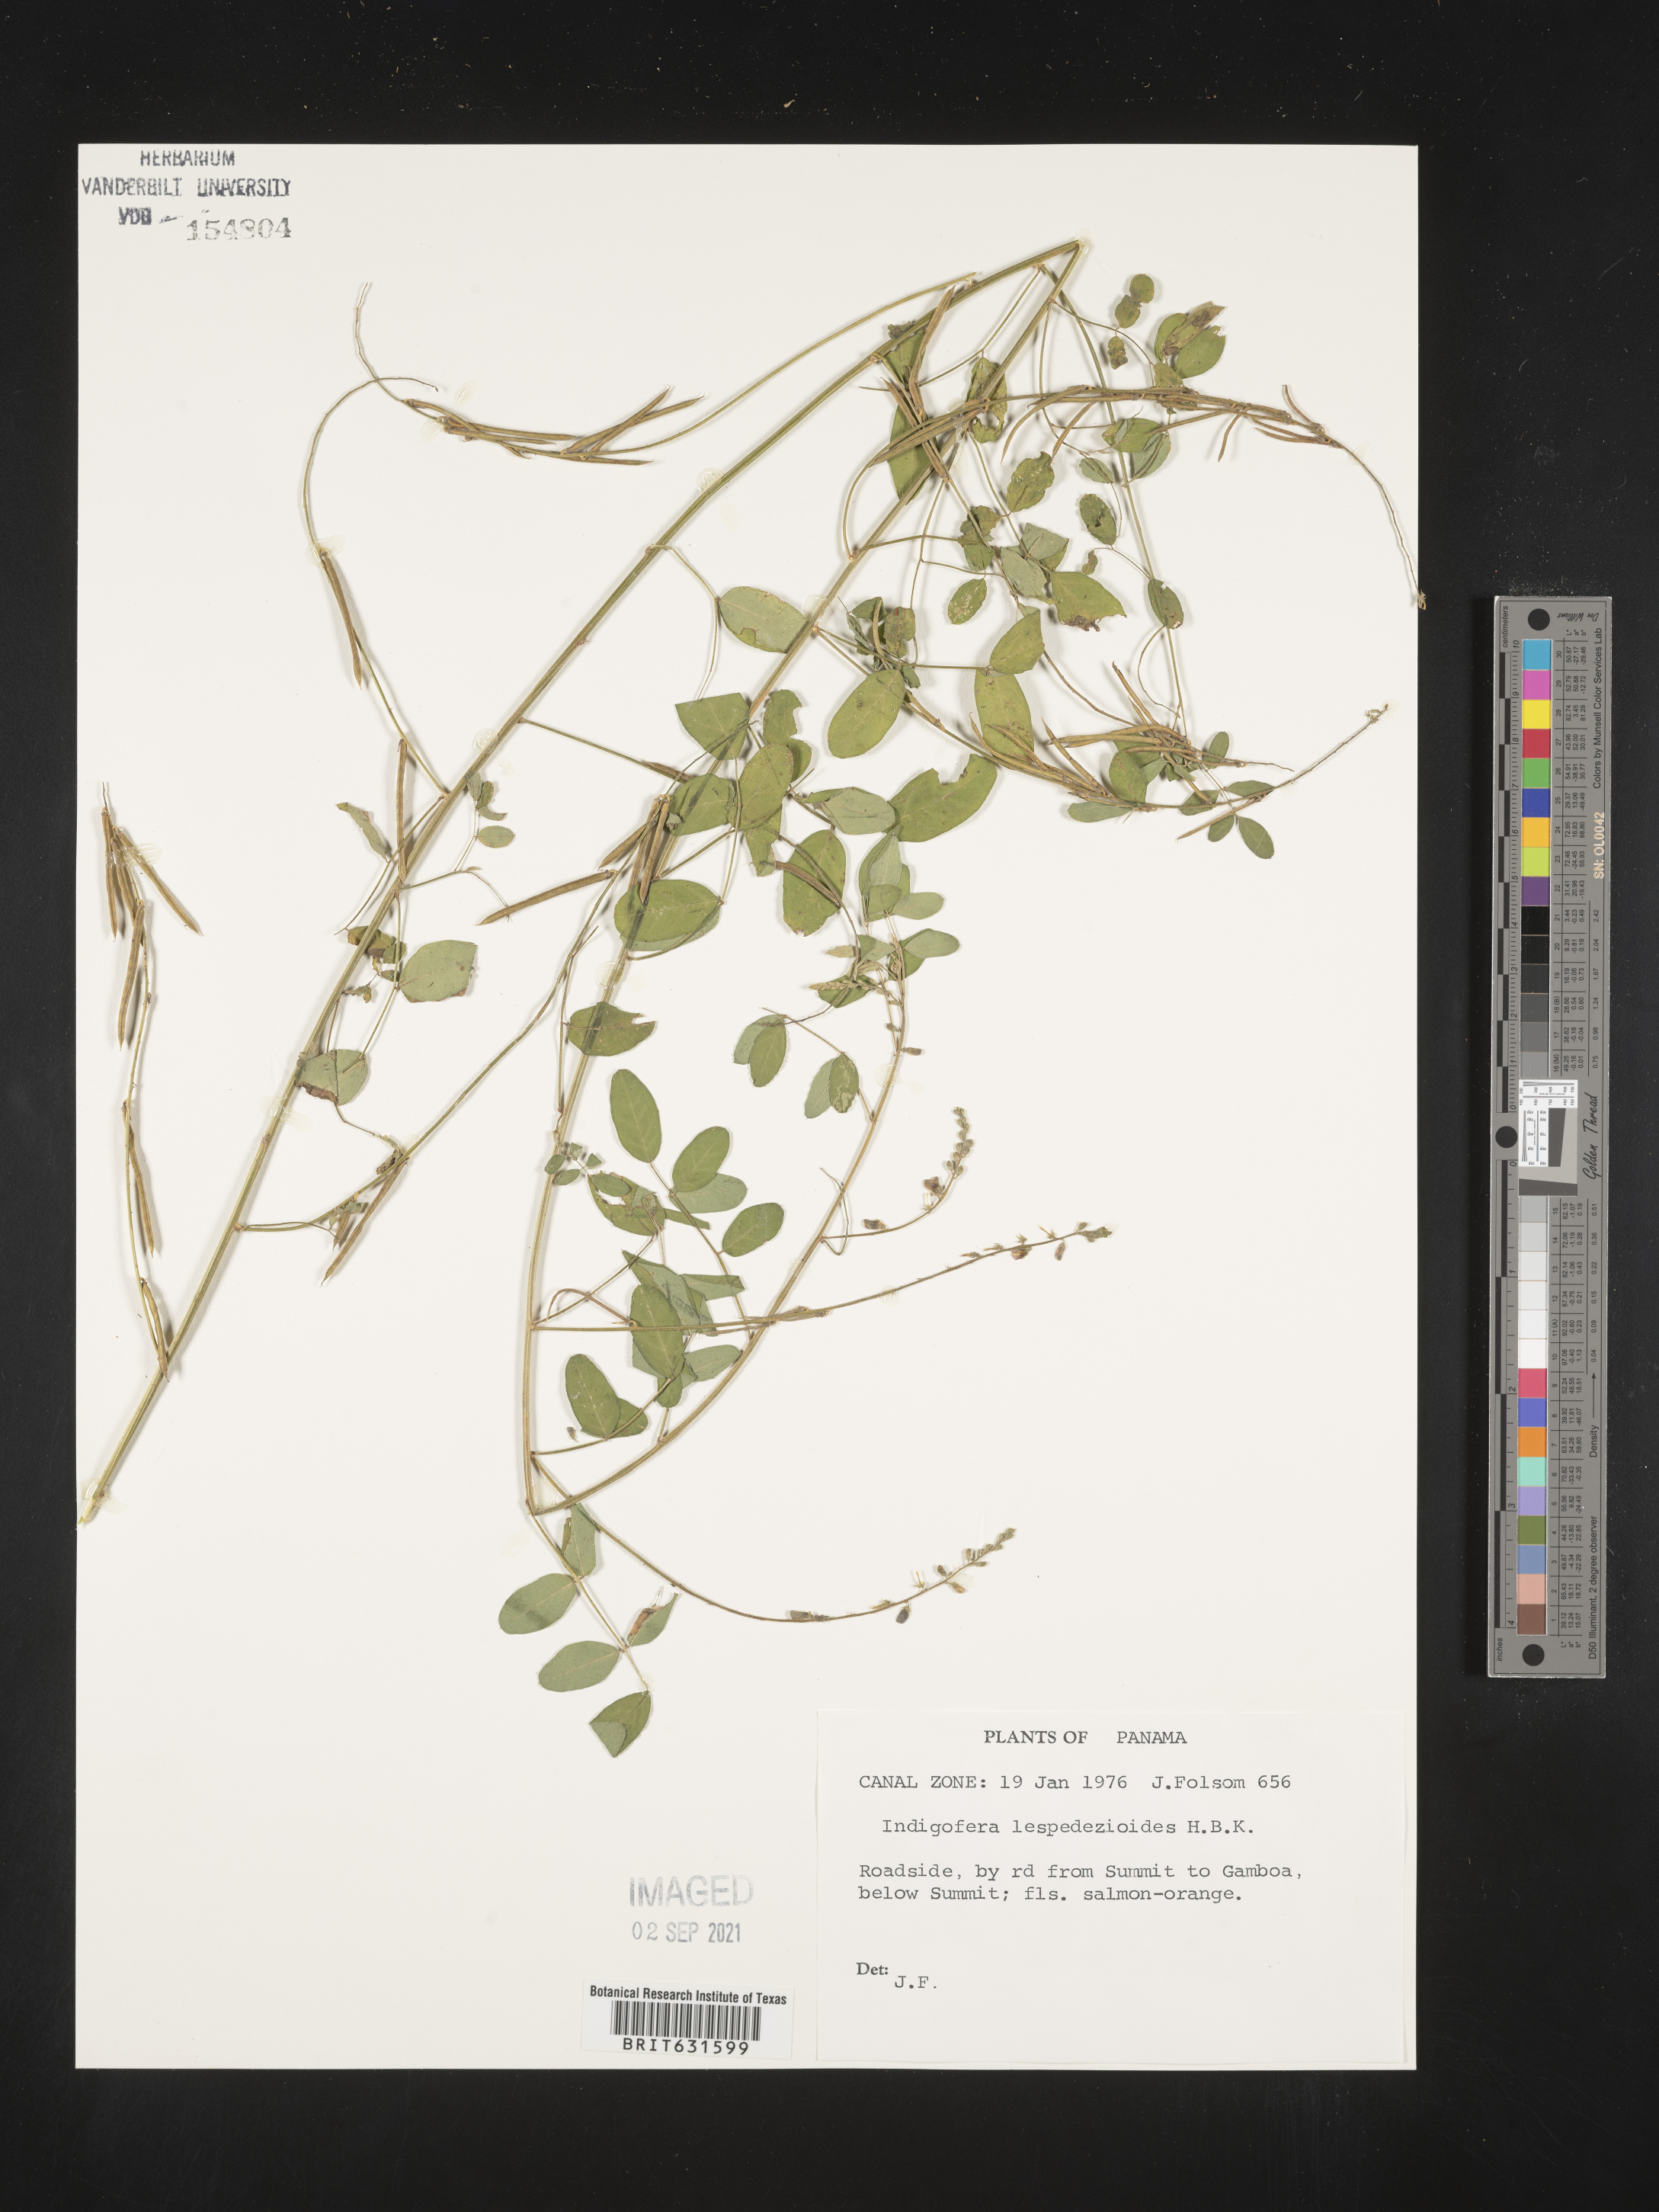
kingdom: Plantae
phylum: Tracheophyta
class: Magnoliopsida
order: Fabales
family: Fabaceae
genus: Indigofera
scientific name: Indigofera
